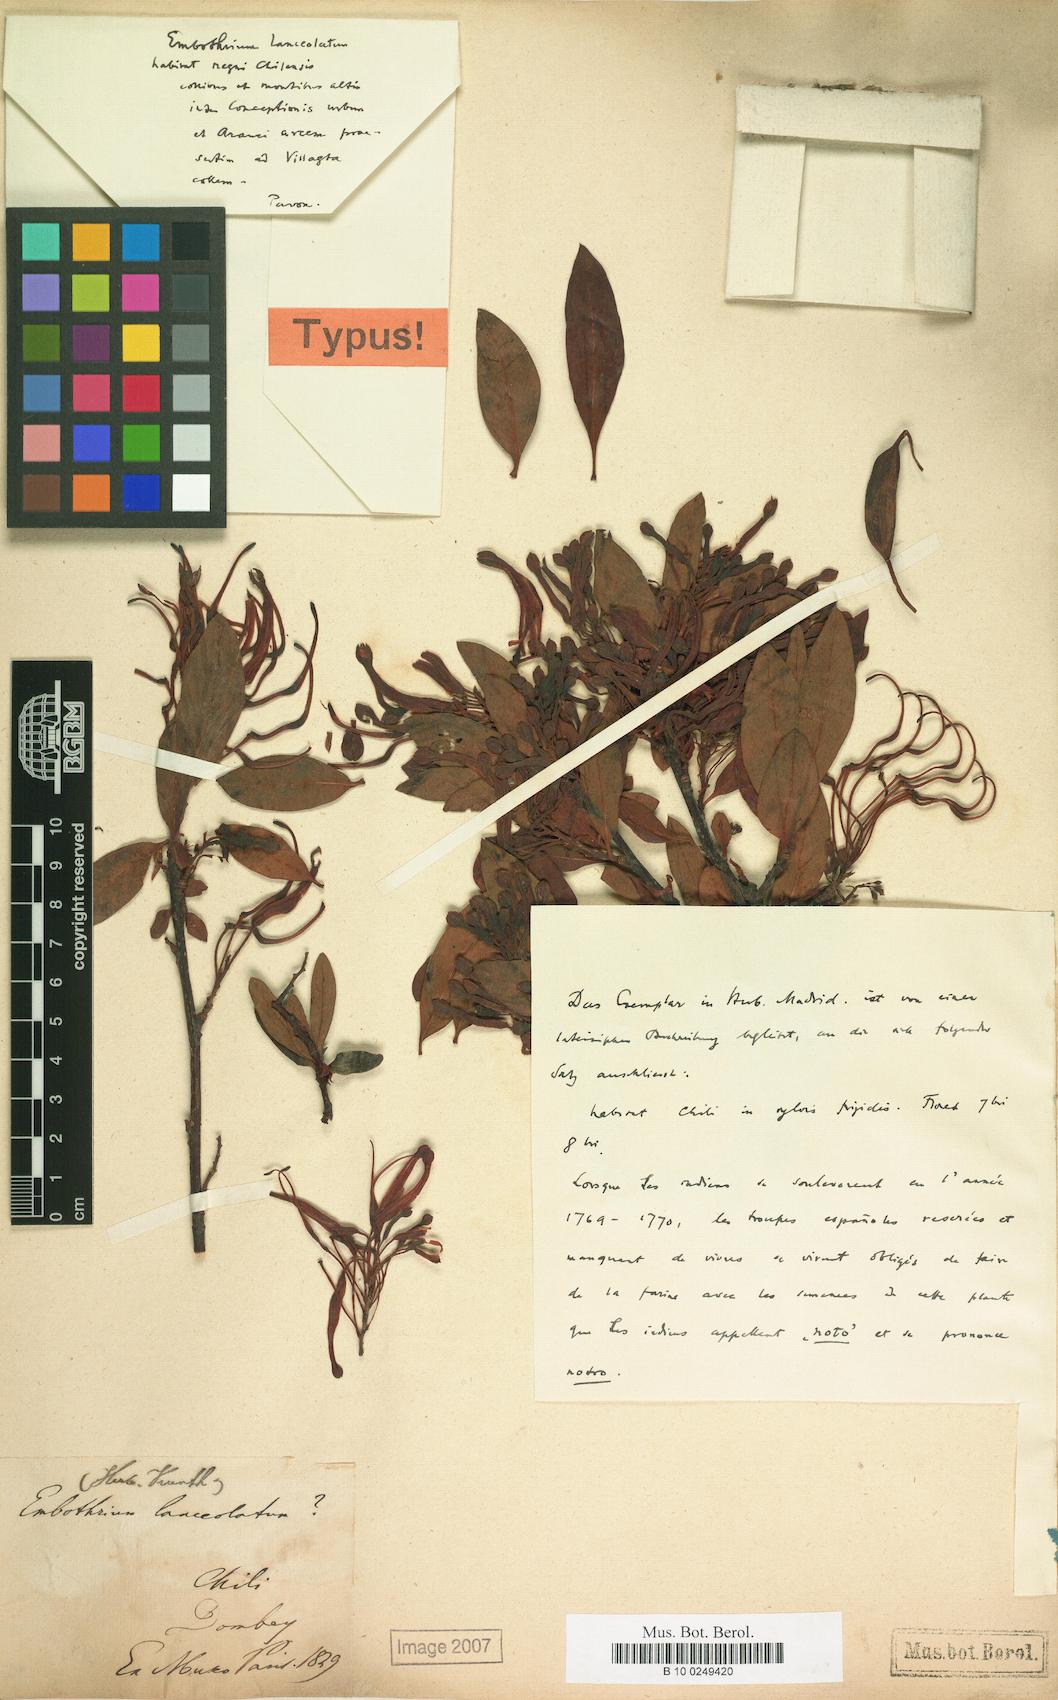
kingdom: Plantae
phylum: Tracheophyta
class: Magnoliopsida
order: Proteales
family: Proteaceae
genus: Embothrium
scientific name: Embothrium coccineum
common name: Chilean firebush
